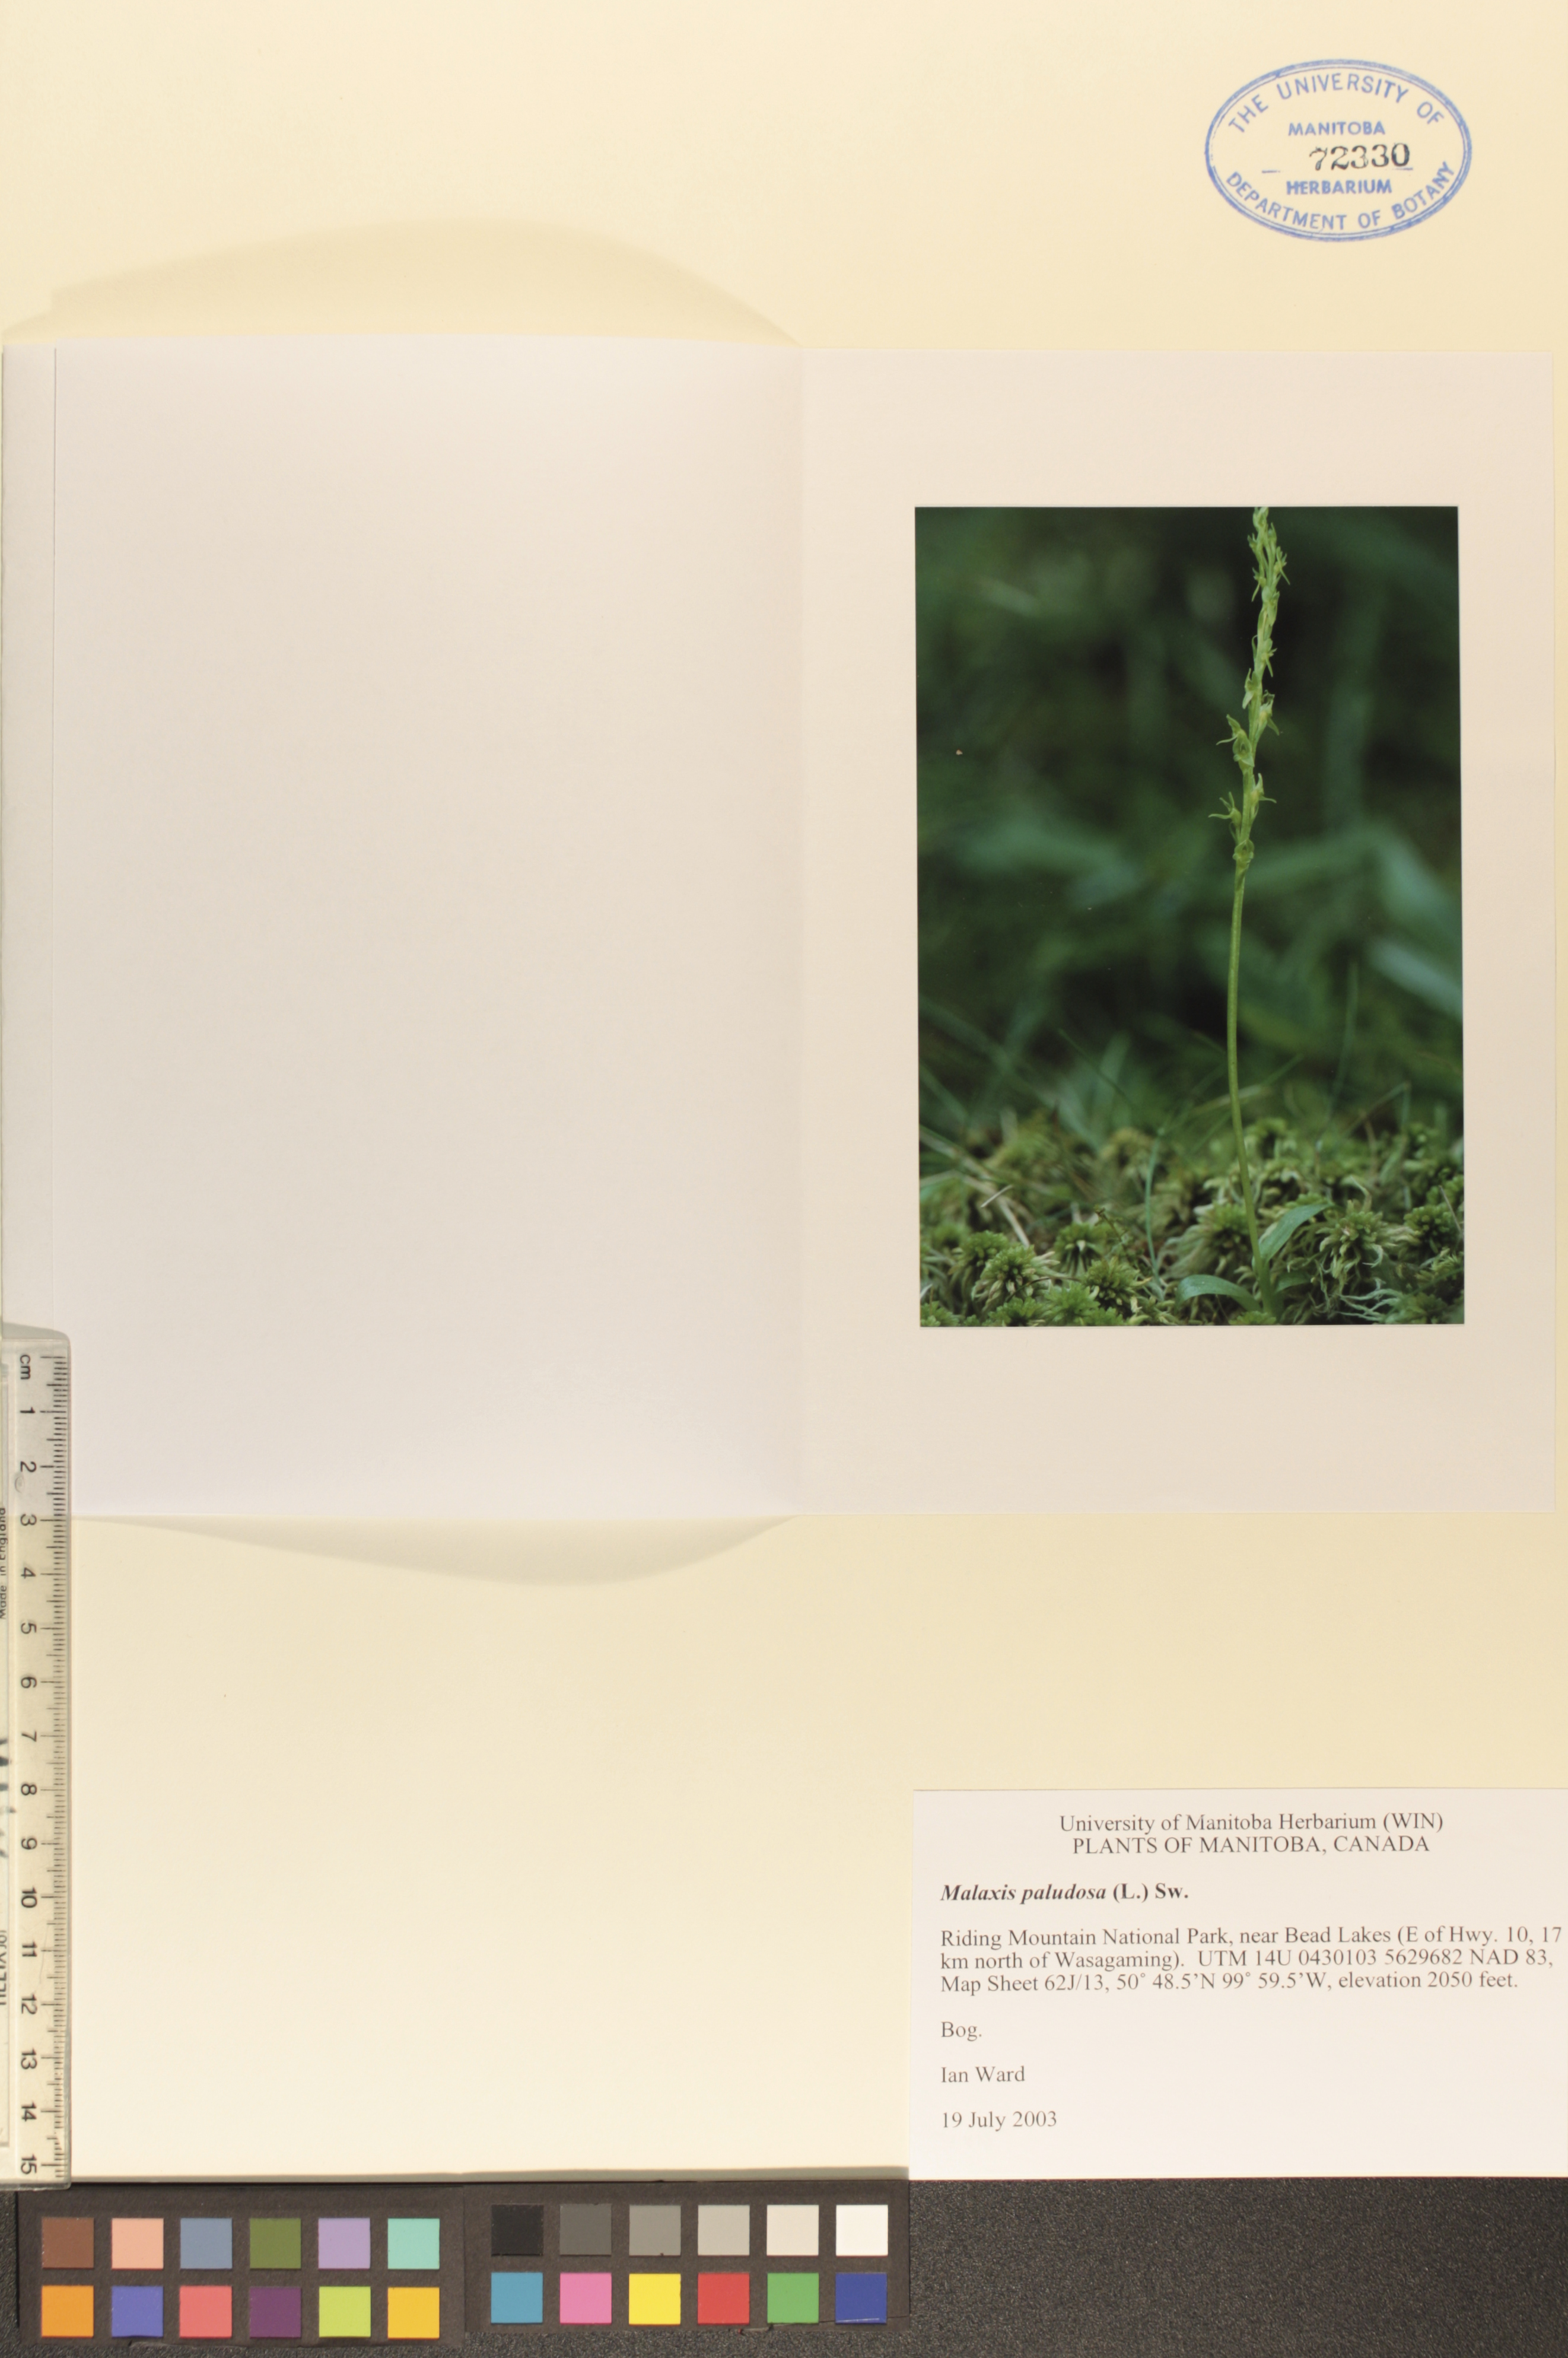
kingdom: Plantae
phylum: Tracheophyta
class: Liliopsida
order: Asparagales
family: Orchidaceae
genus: Hammarbya
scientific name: Hammarbya paludosa
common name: Bog orchid
